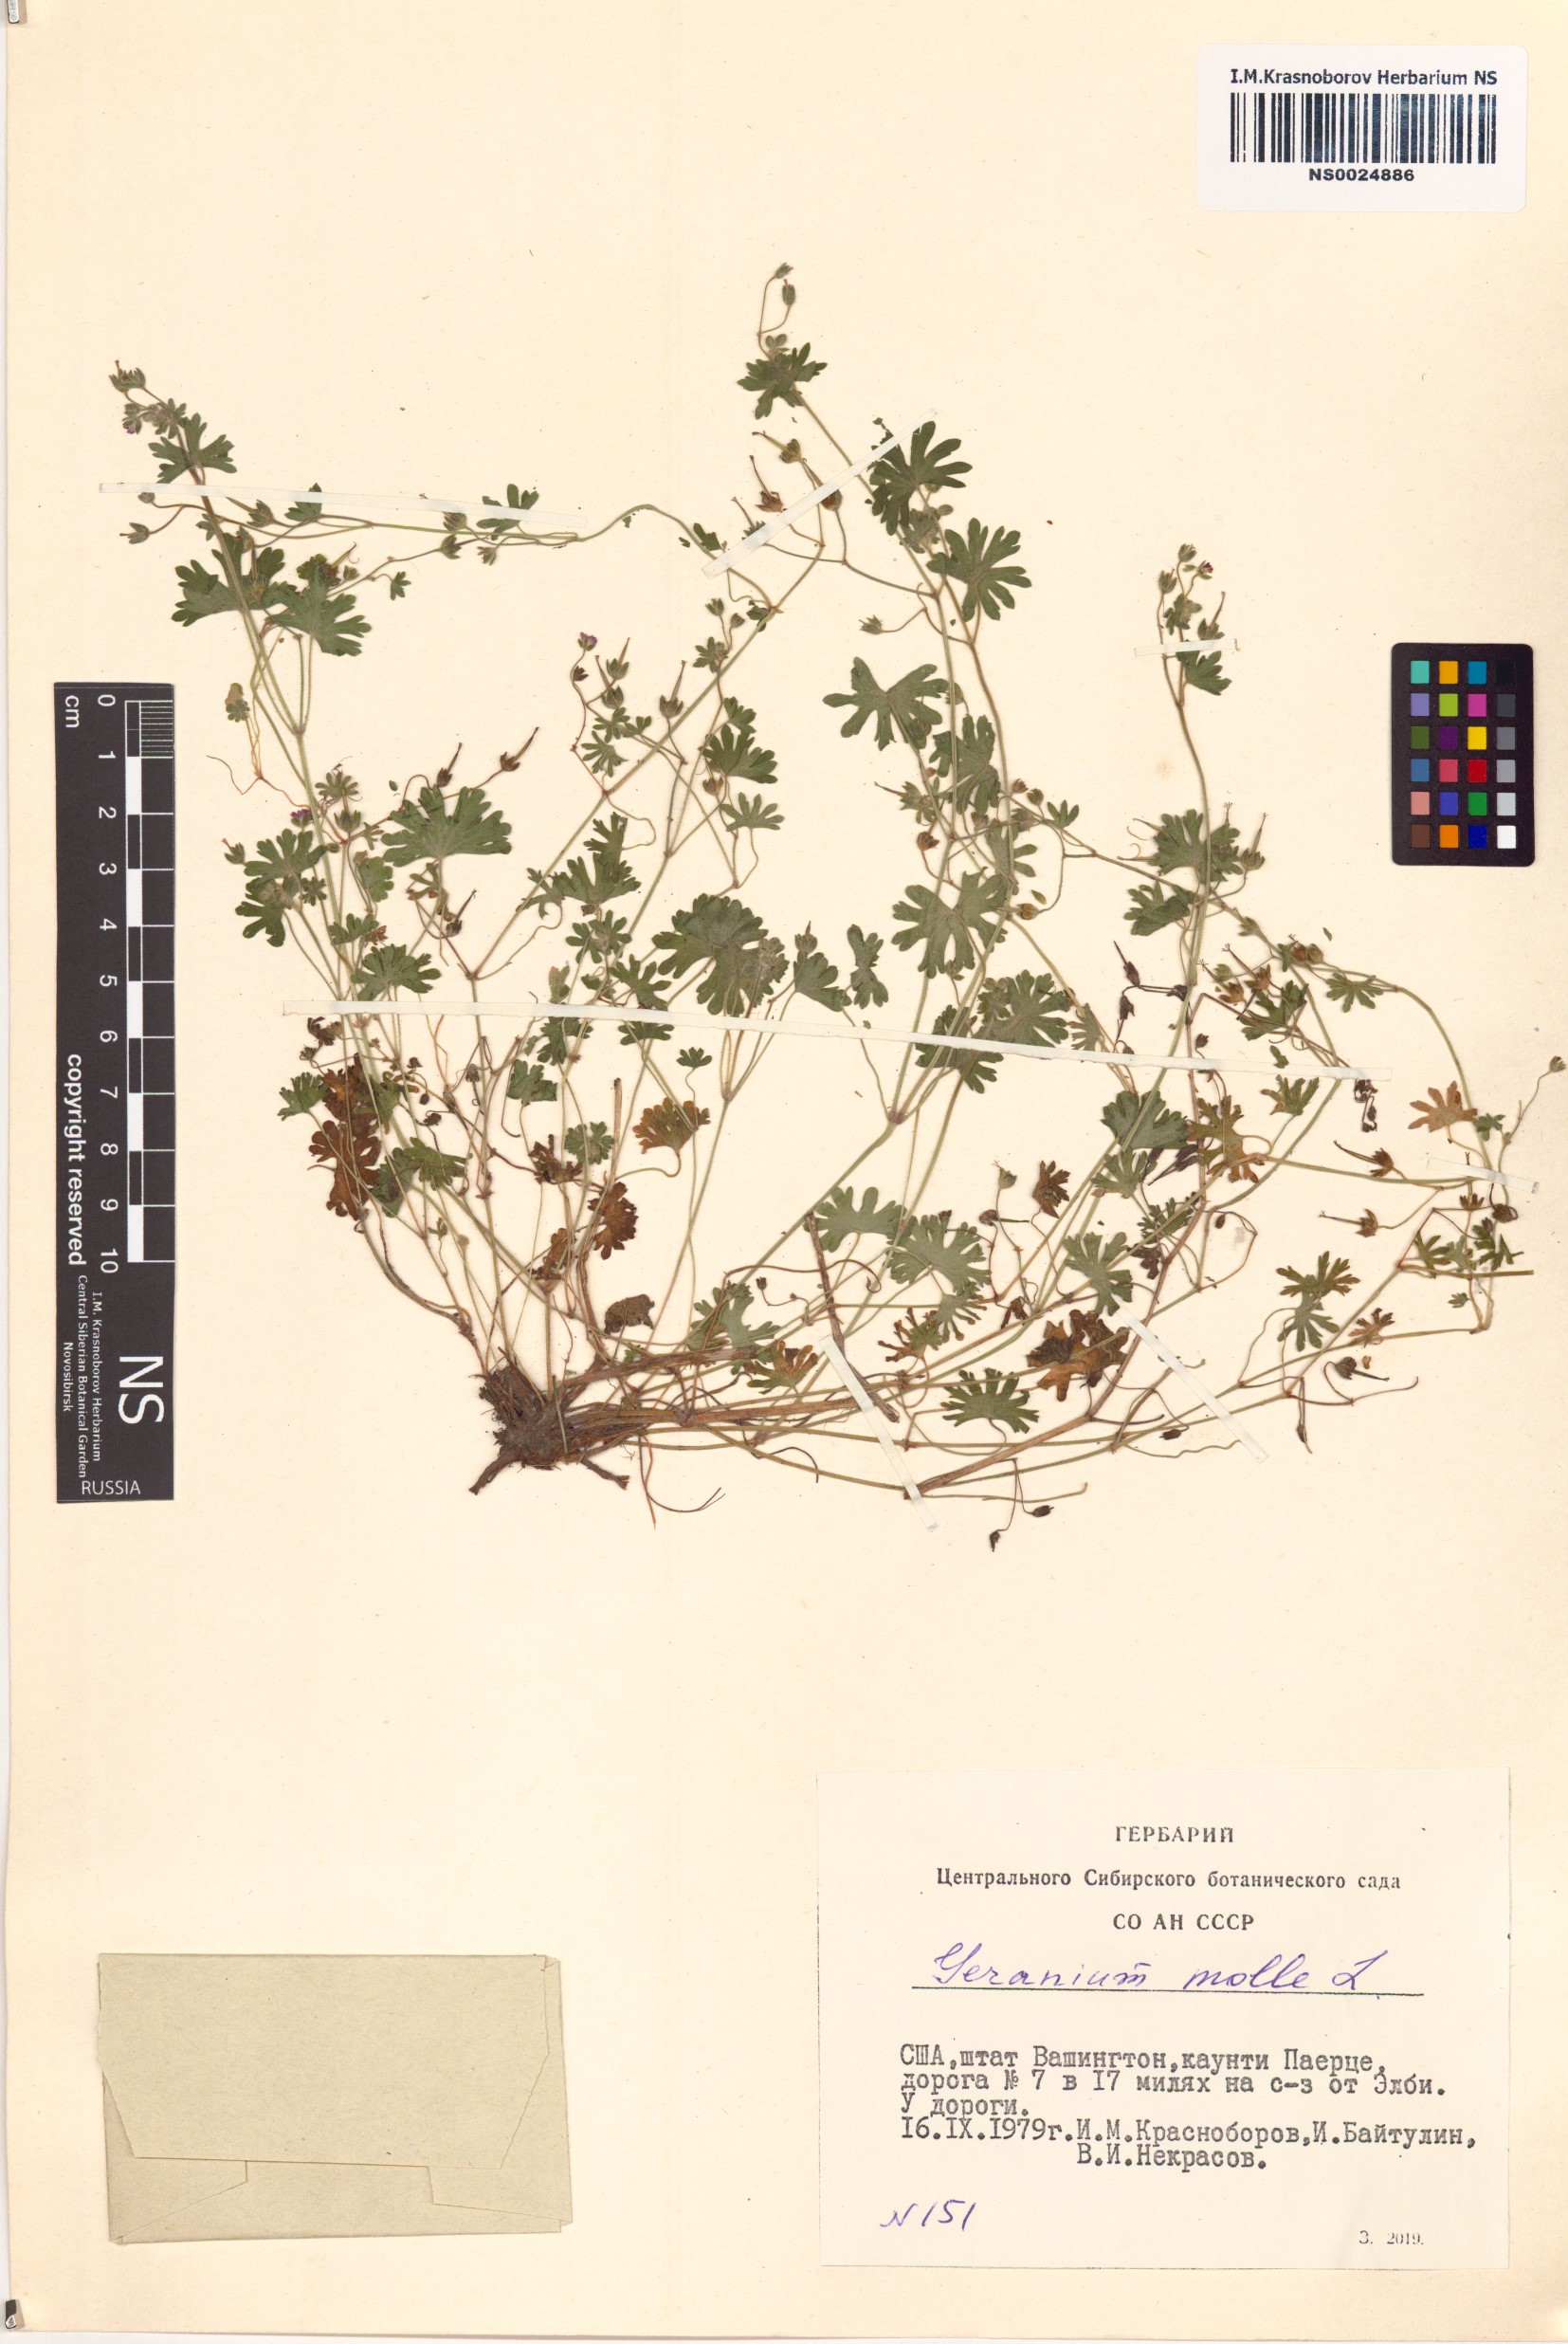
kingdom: Plantae
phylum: Tracheophyta
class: Magnoliopsida
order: Geraniales
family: Geraniaceae
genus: Geranium
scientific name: Geranium molle
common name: Dove's-foot crane's-bill
